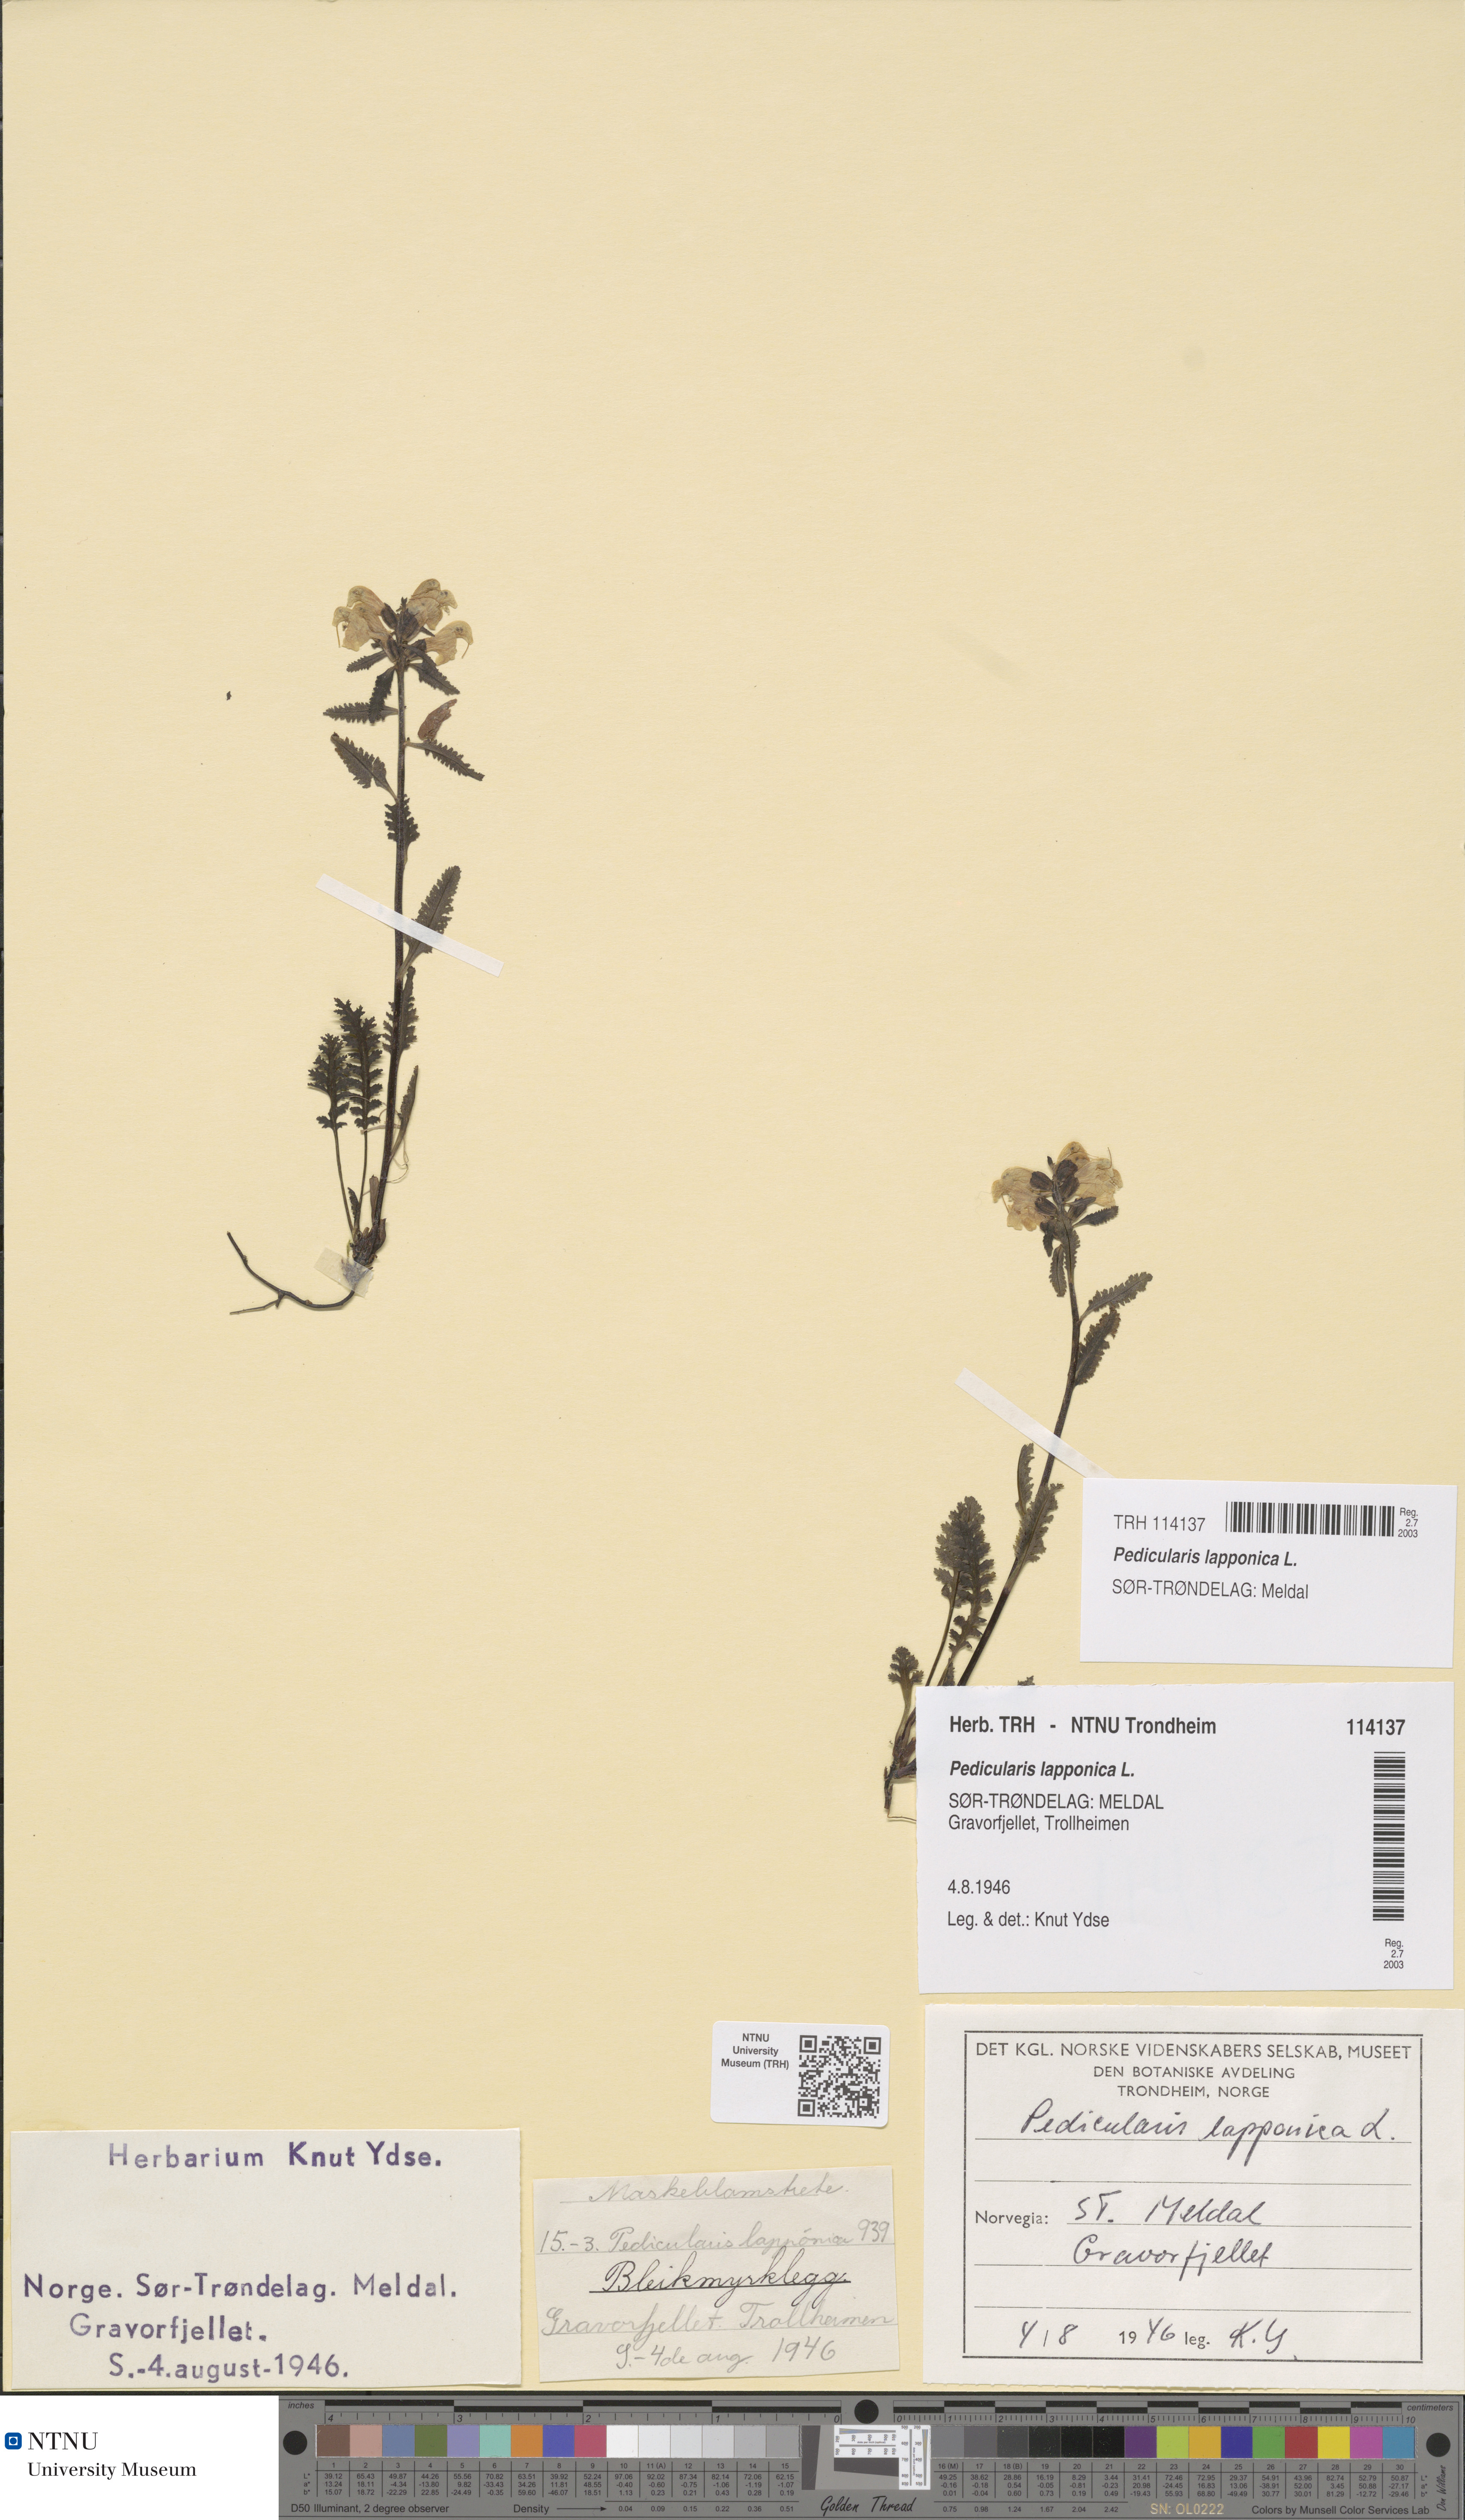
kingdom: Plantae
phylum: Tracheophyta
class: Magnoliopsida
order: Lamiales
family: Orobanchaceae
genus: Pedicularis
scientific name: Pedicularis lapponica
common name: Lapland lousewort
